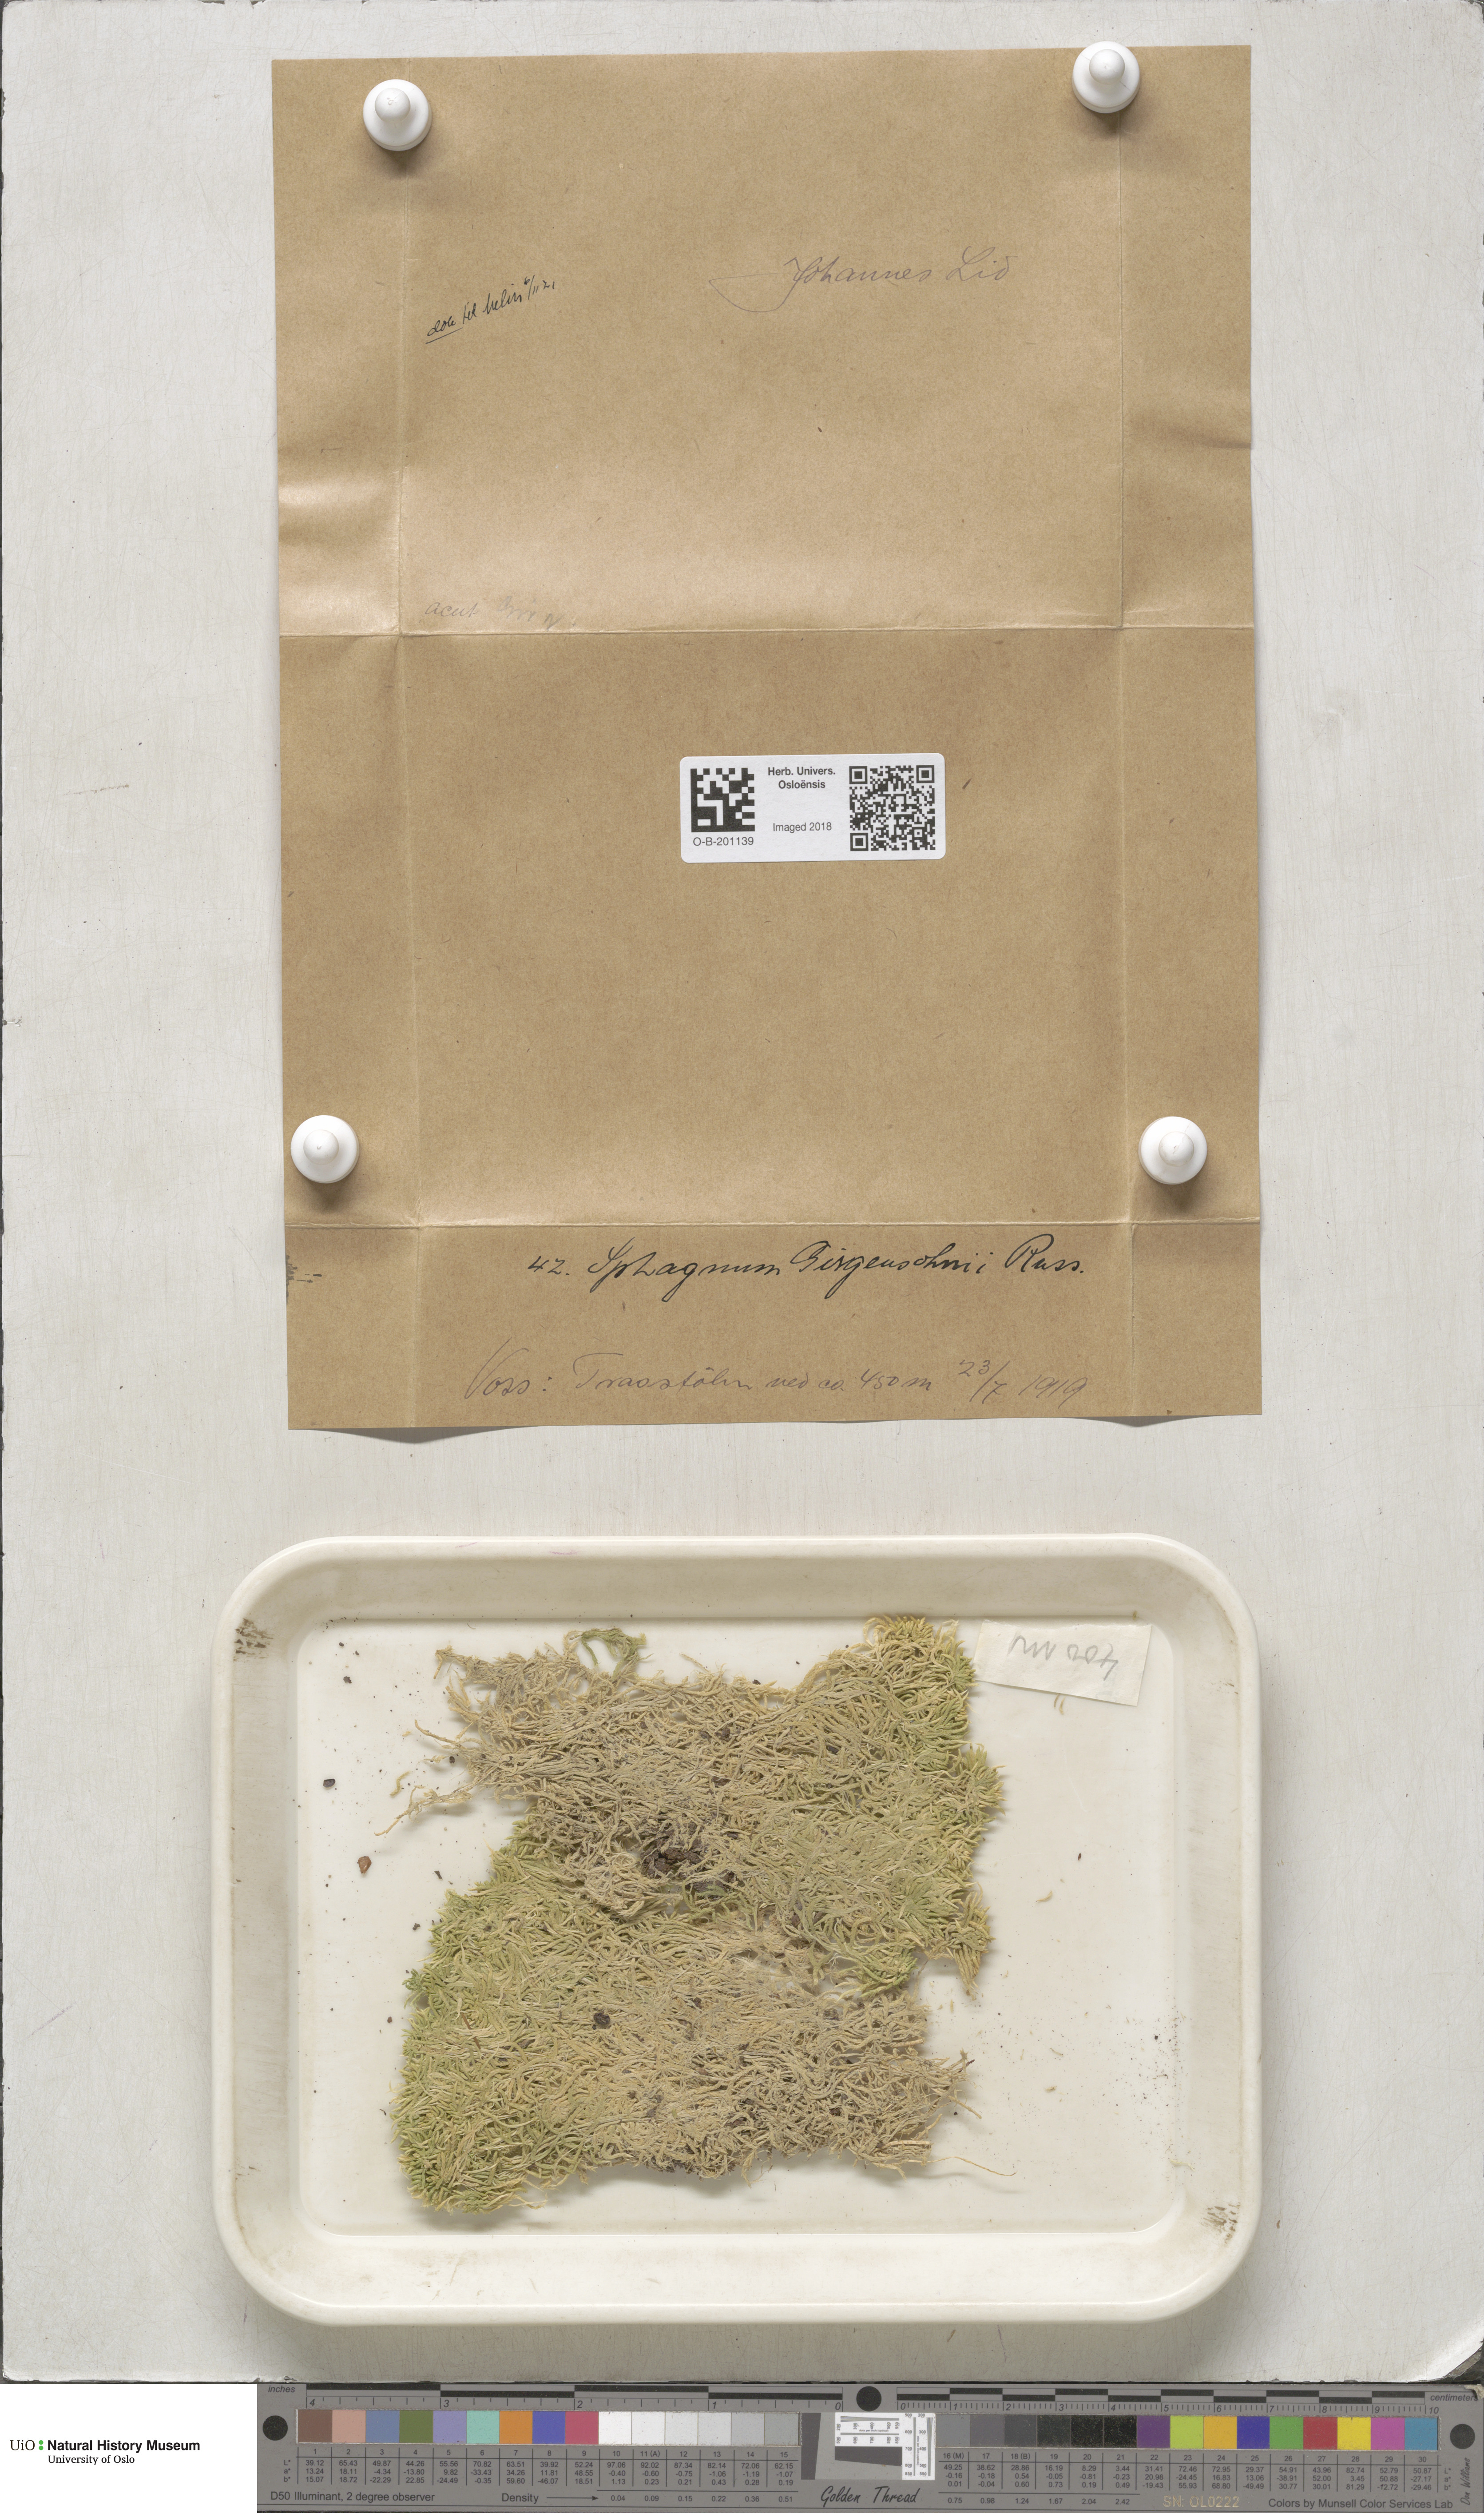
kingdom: Plantae
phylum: Bryophyta
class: Sphagnopsida
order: Sphagnales
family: Sphagnaceae
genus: Sphagnum
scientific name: Sphagnum girgensohnii
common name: Girgensohn's peat moss
